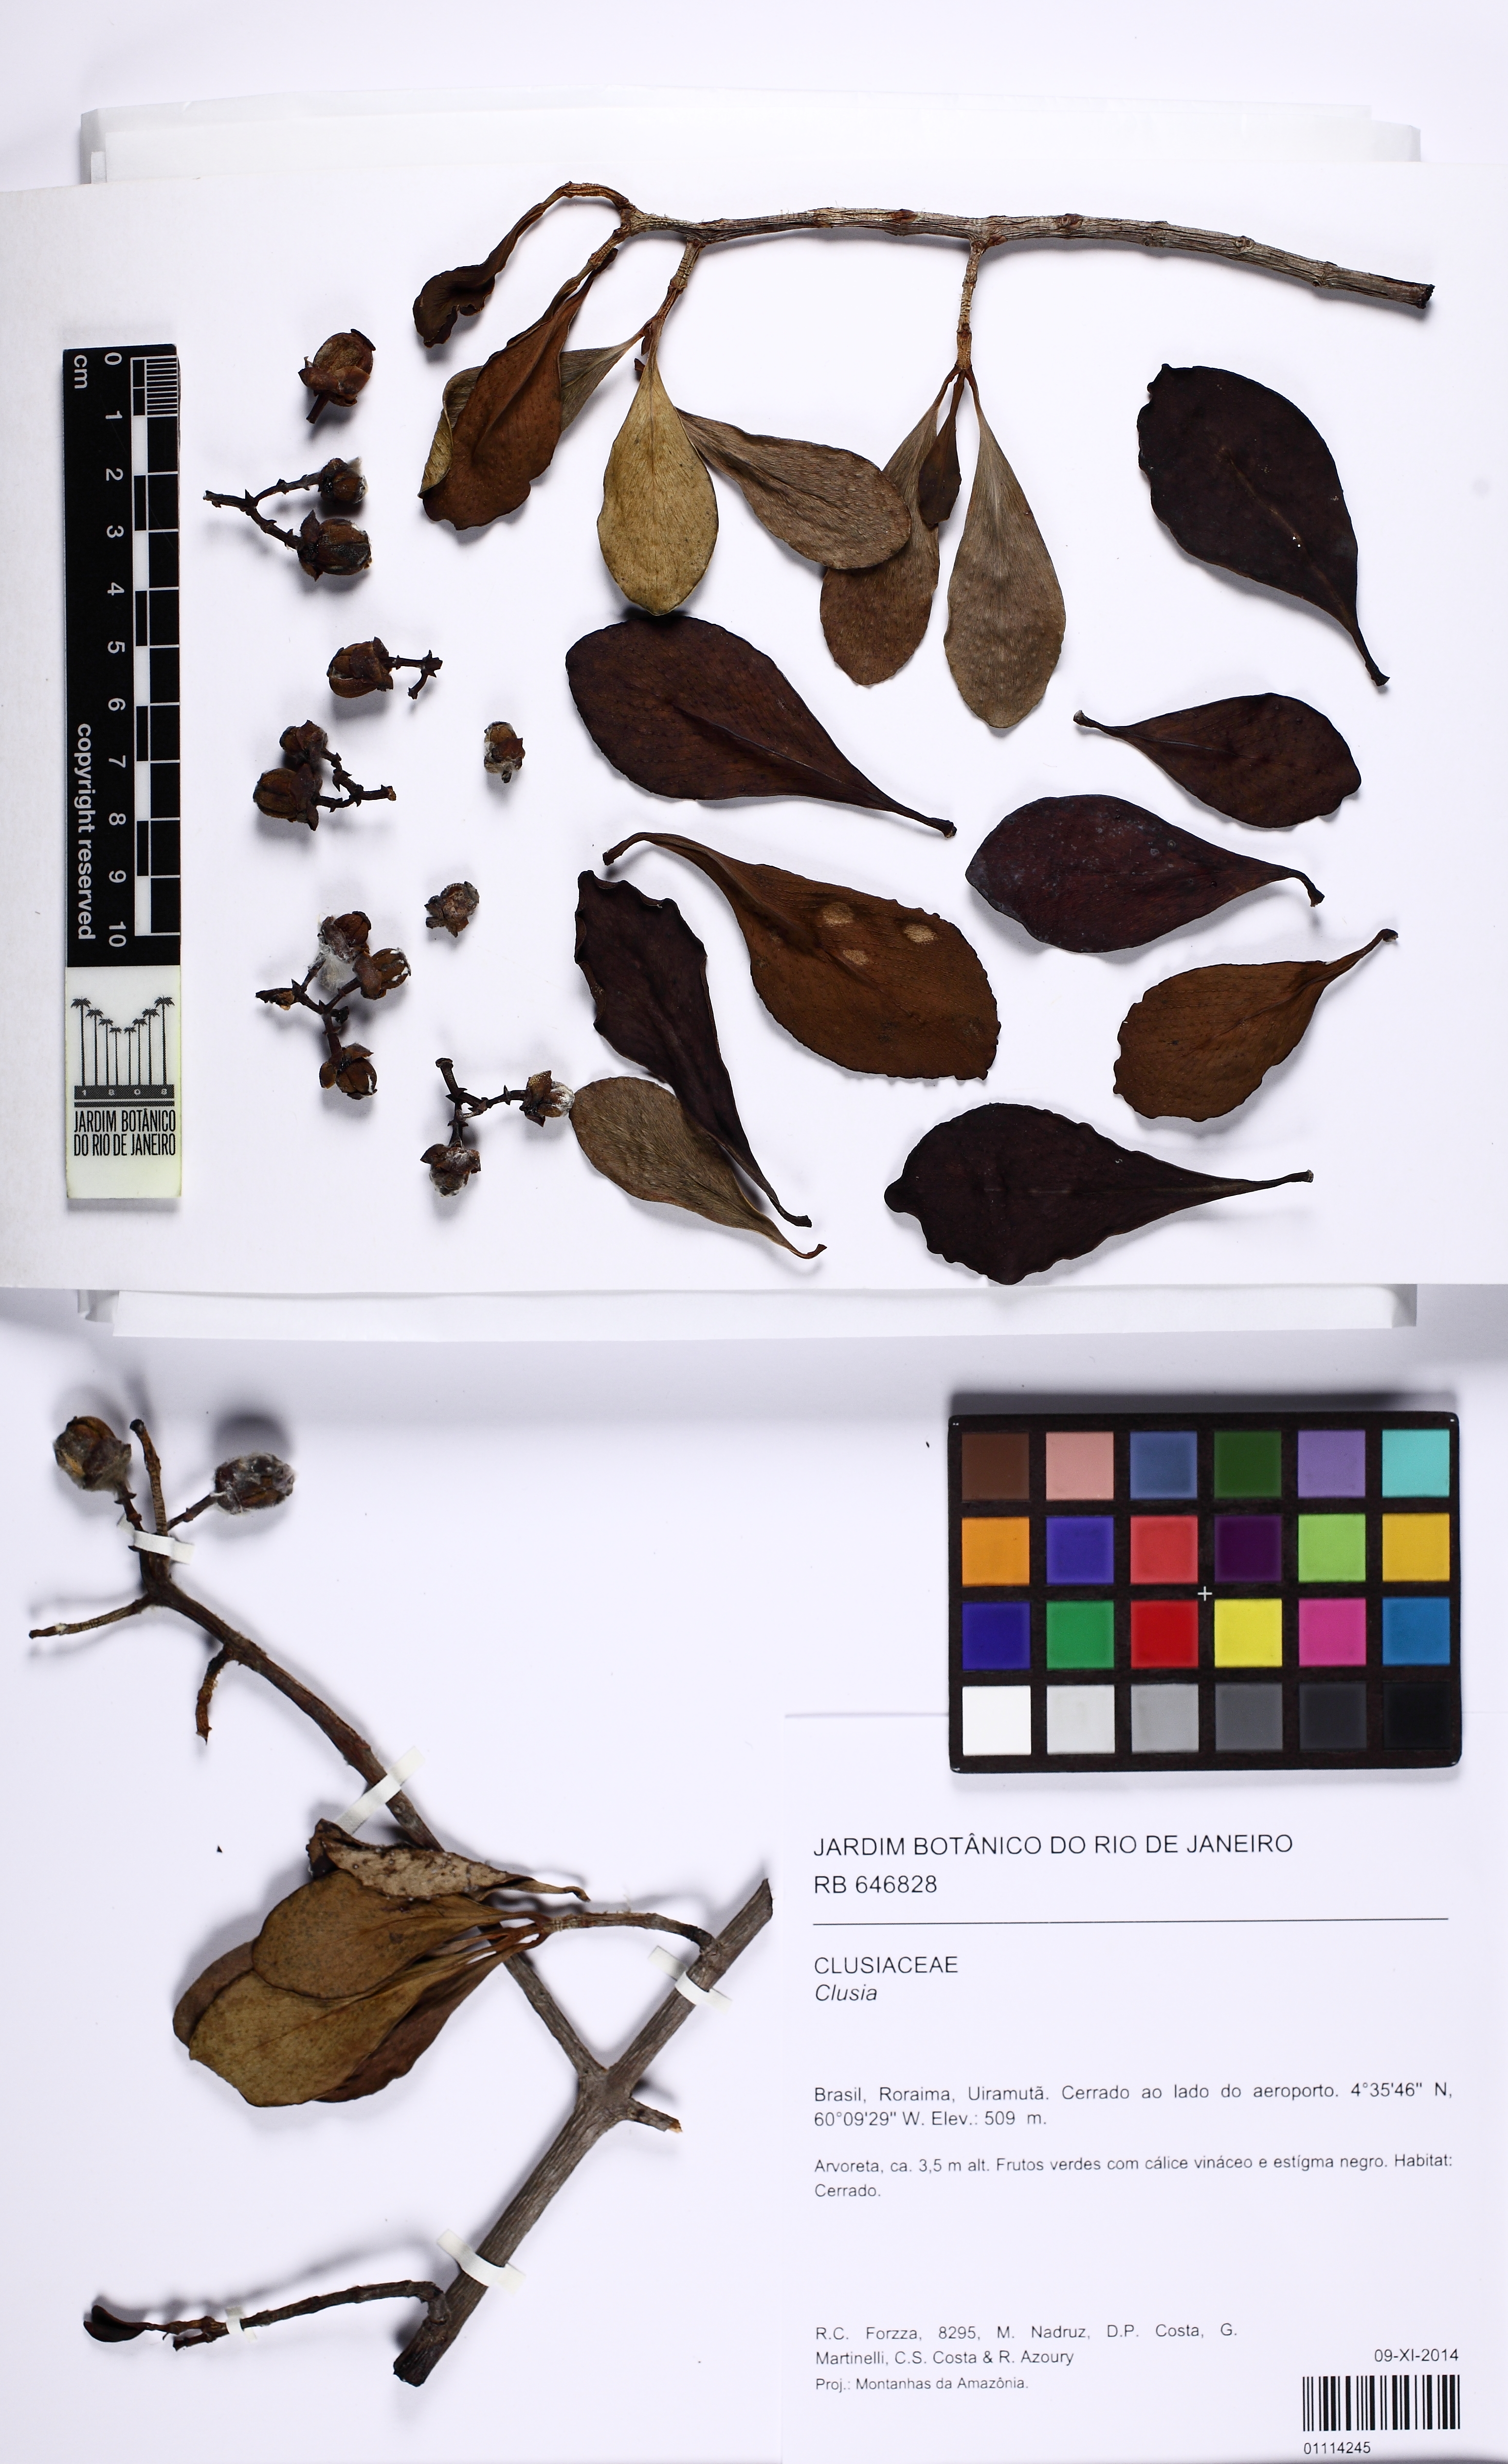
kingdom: Plantae
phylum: Tracheophyta
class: Magnoliopsida
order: Malpighiales
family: Clusiaceae
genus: Clusia
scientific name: Clusia
